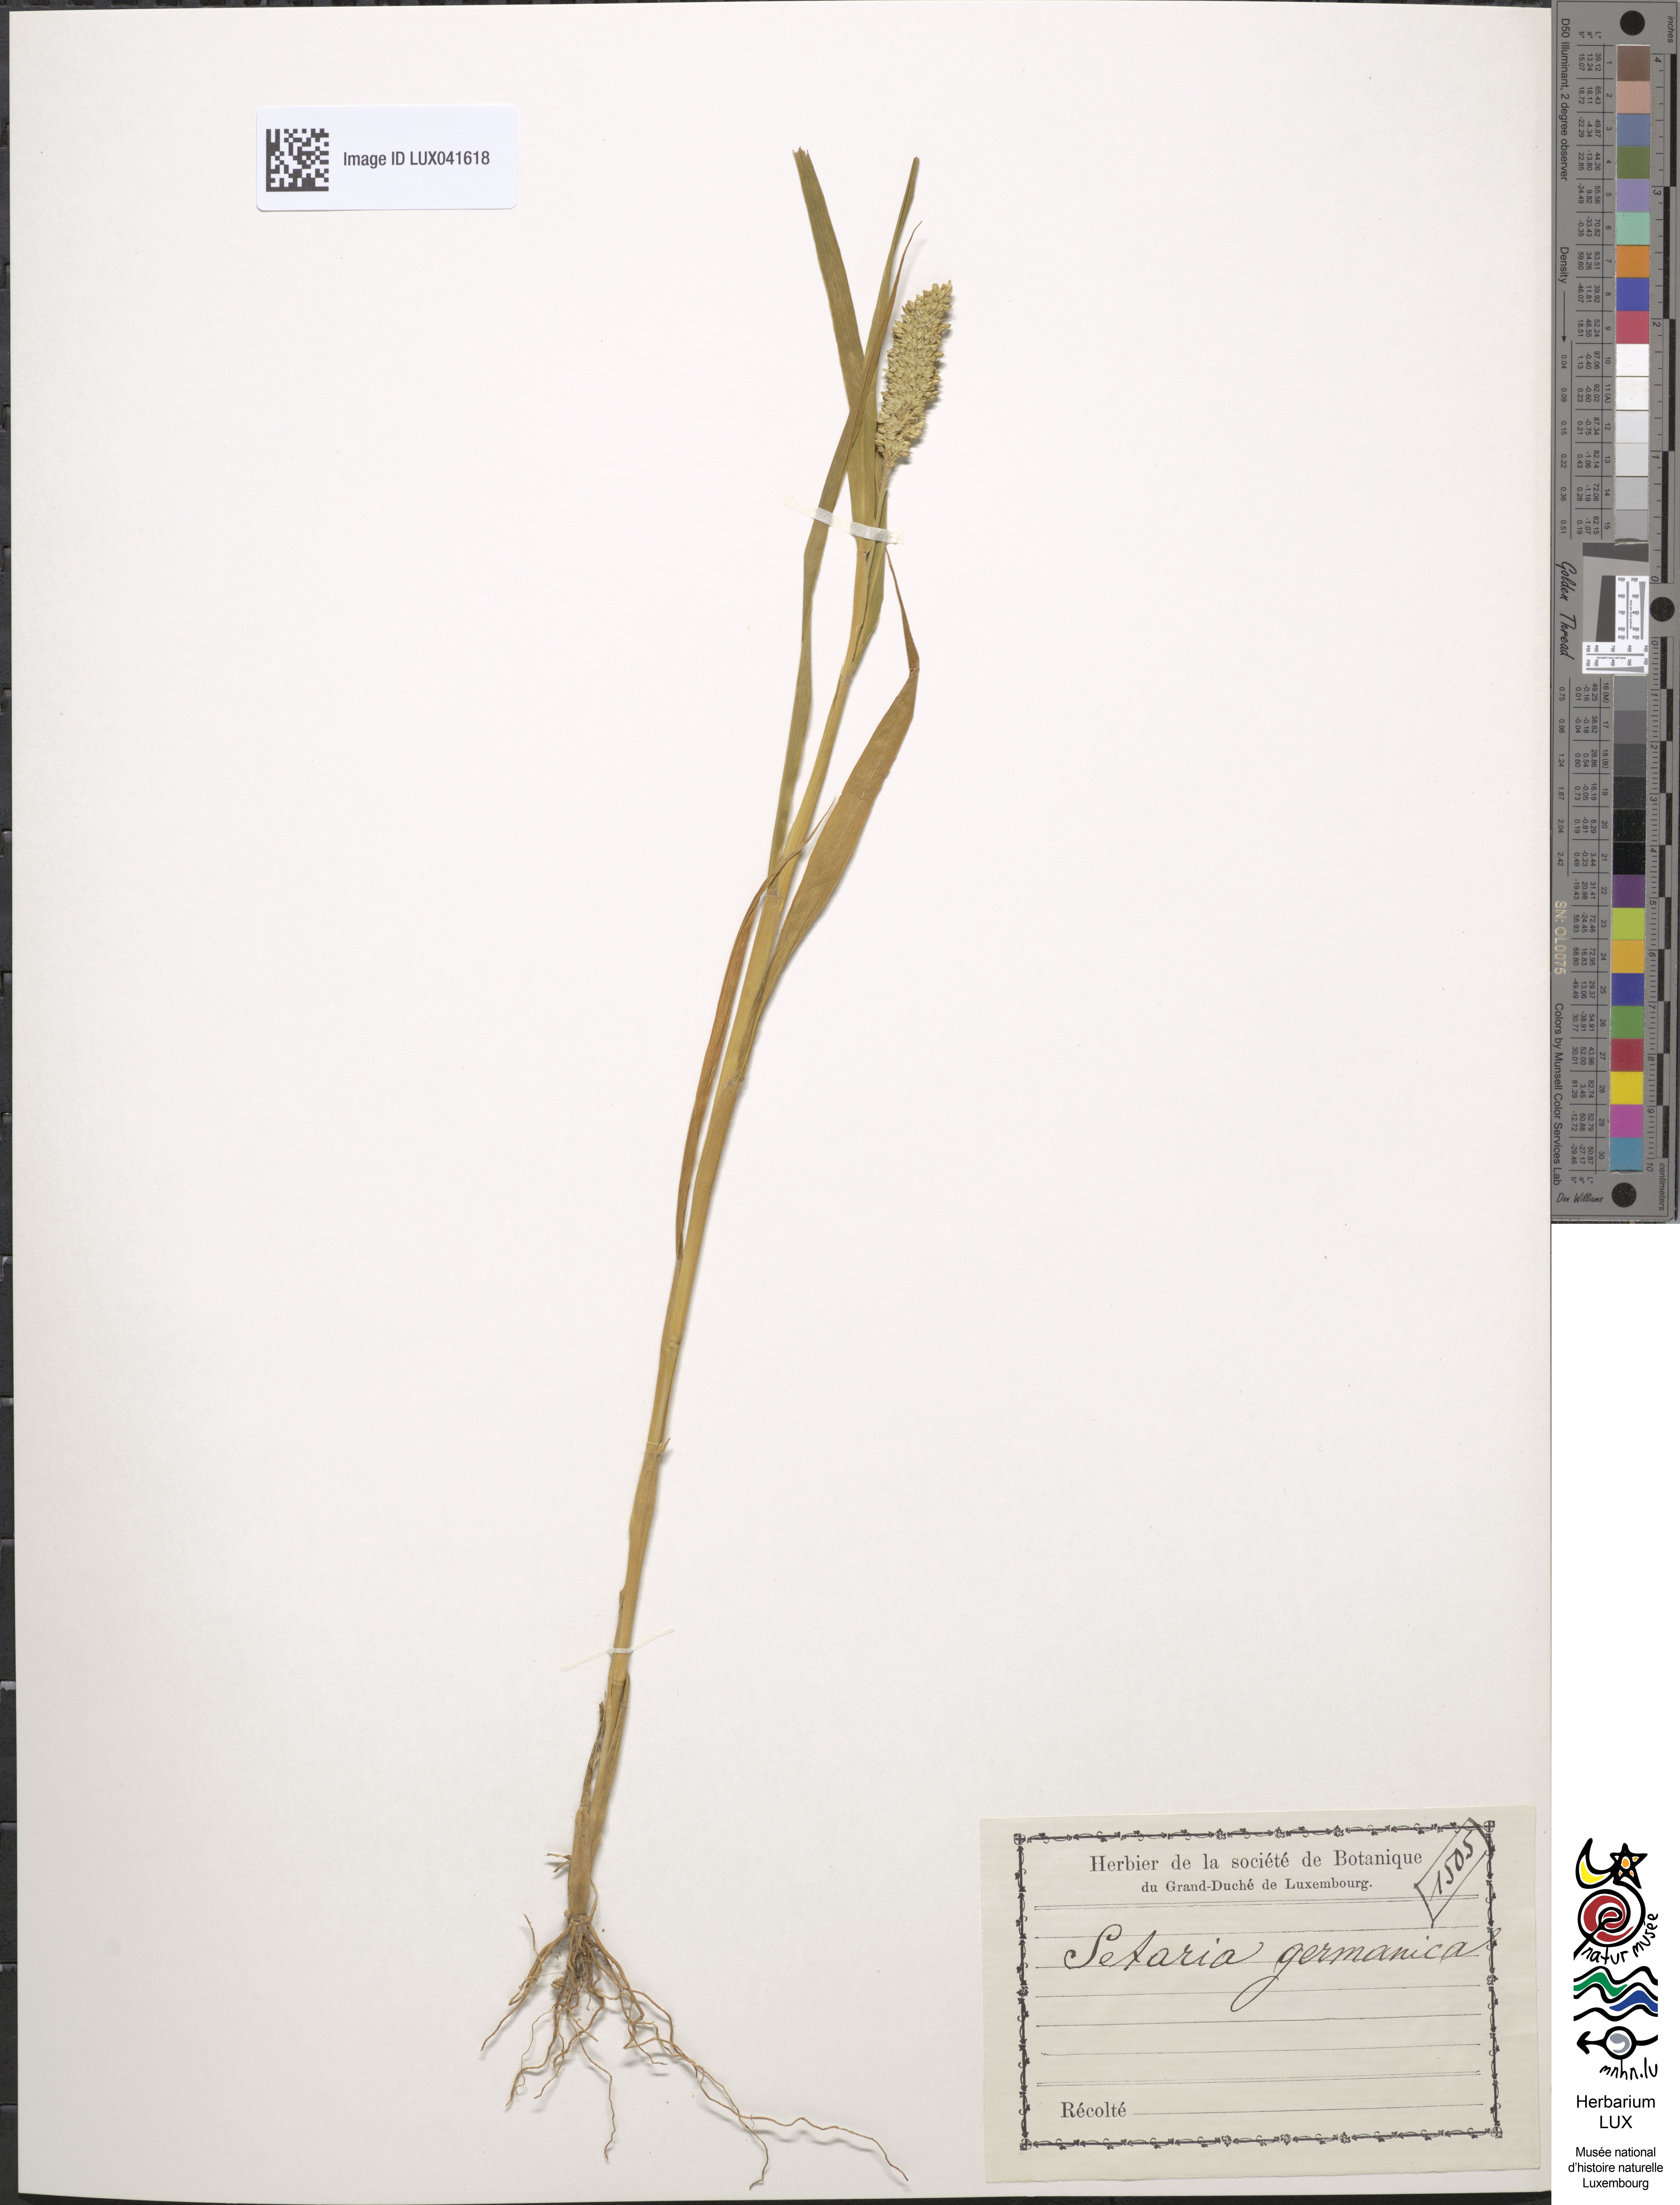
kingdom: Plantae
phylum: Tracheophyta
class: Liliopsida
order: Poales
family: Poaceae
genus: Setaria
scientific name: Setaria italica
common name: Foxtail bristle-grass
